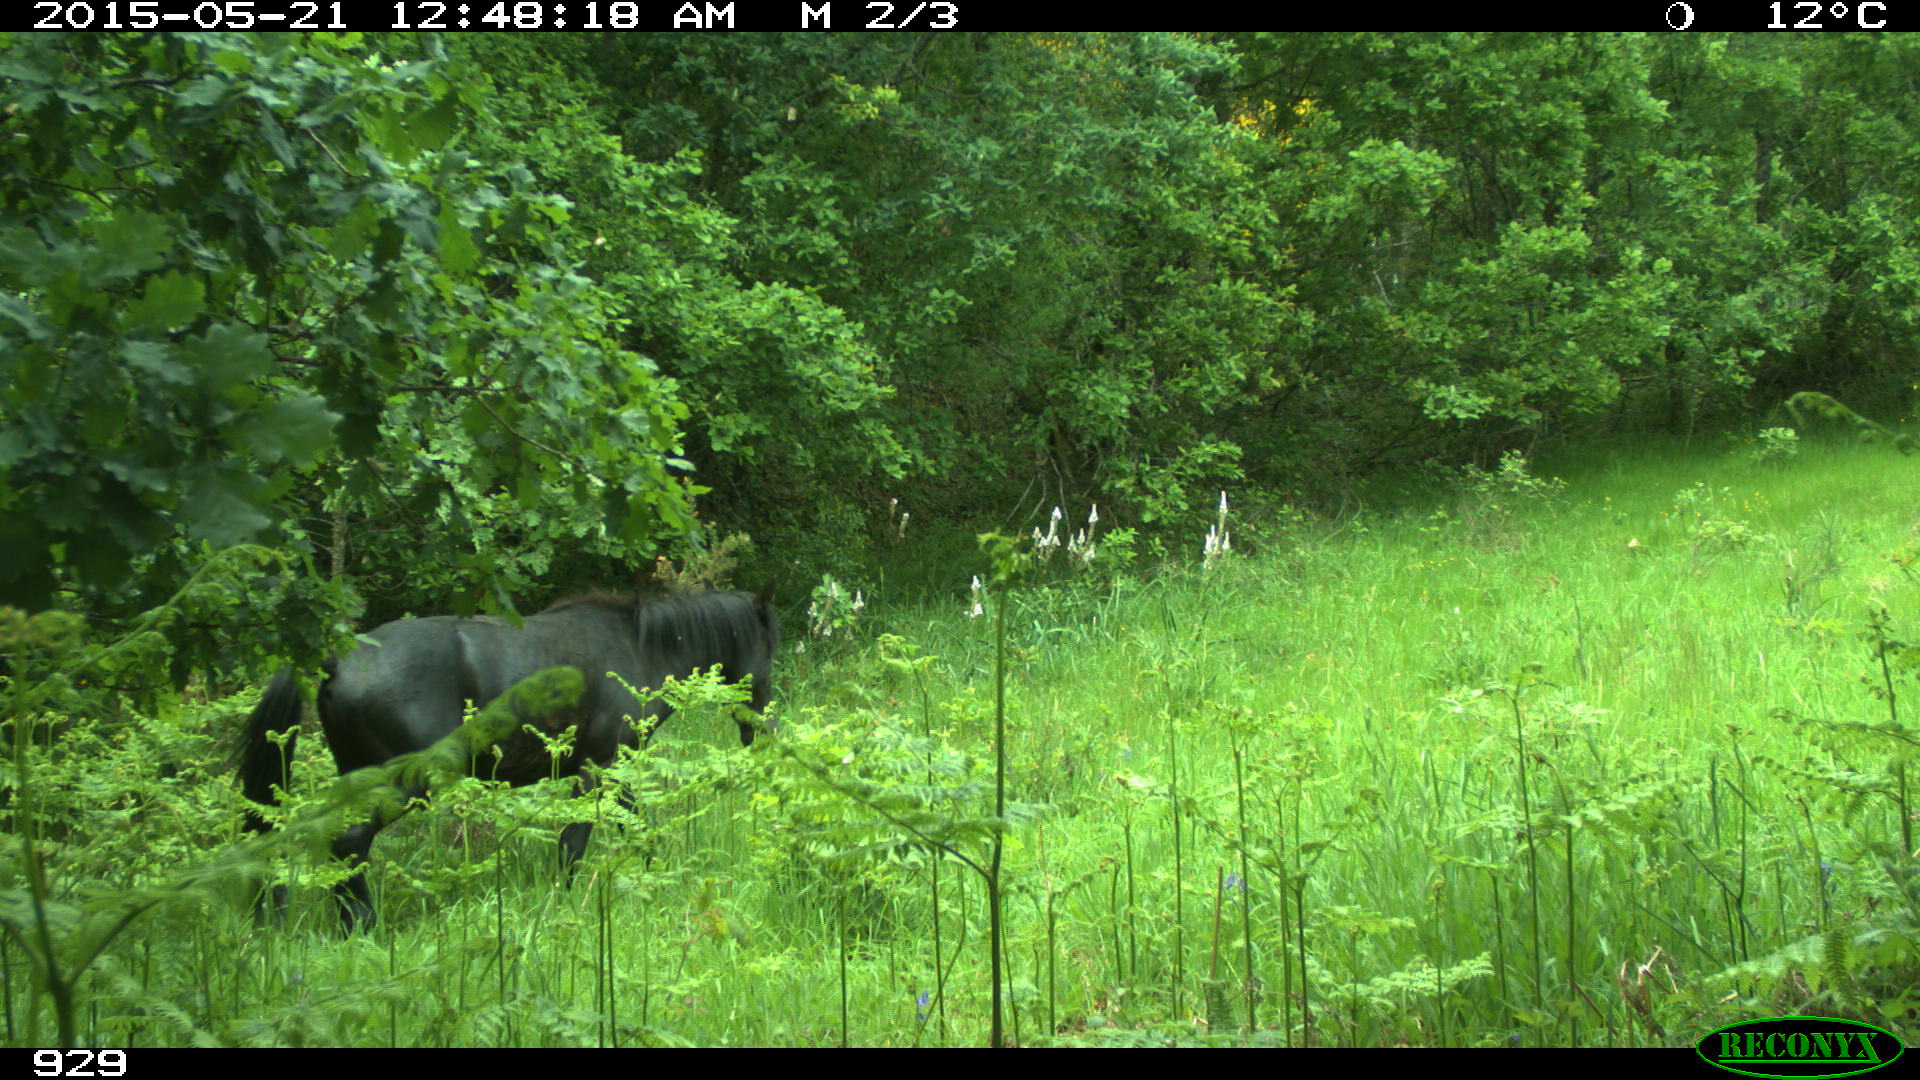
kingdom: Animalia
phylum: Chordata
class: Mammalia
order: Perissodactyla
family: Equidae
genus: Equus
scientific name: Equus caballus
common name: Horse
